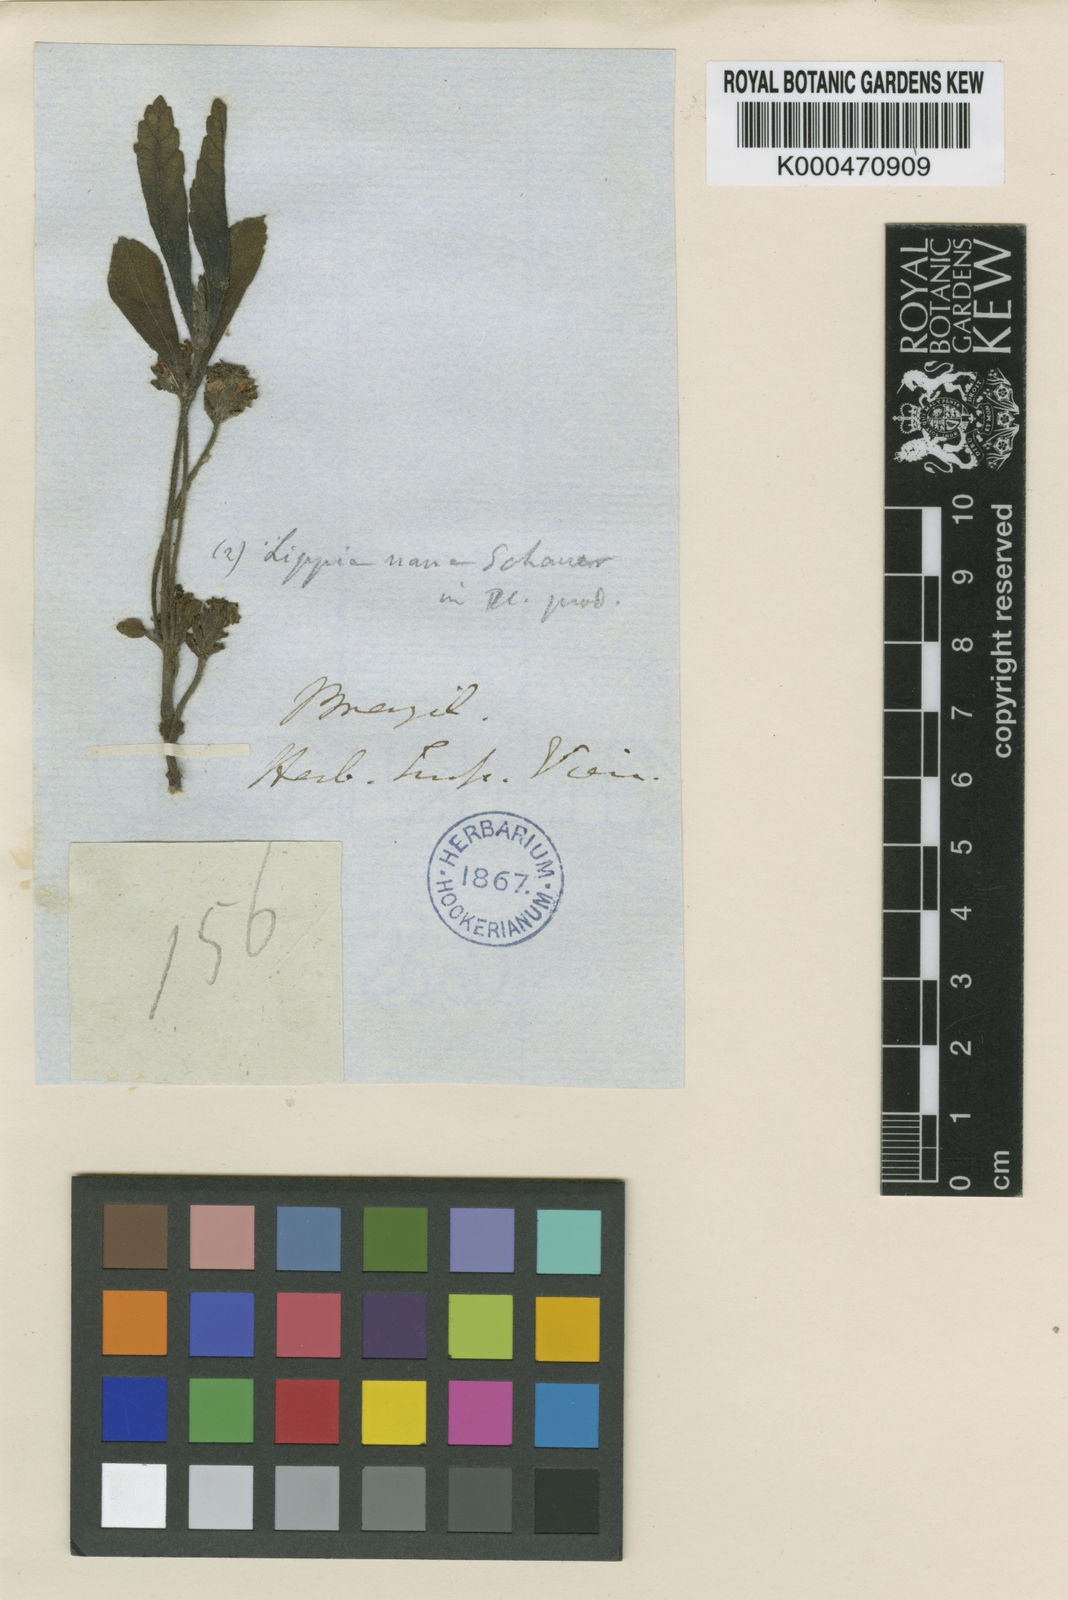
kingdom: Plantae
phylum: Tracheophyta
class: Magnoliopsida
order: Lamiales
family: Verbenaceae
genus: Lippia
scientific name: Lippia pumila
